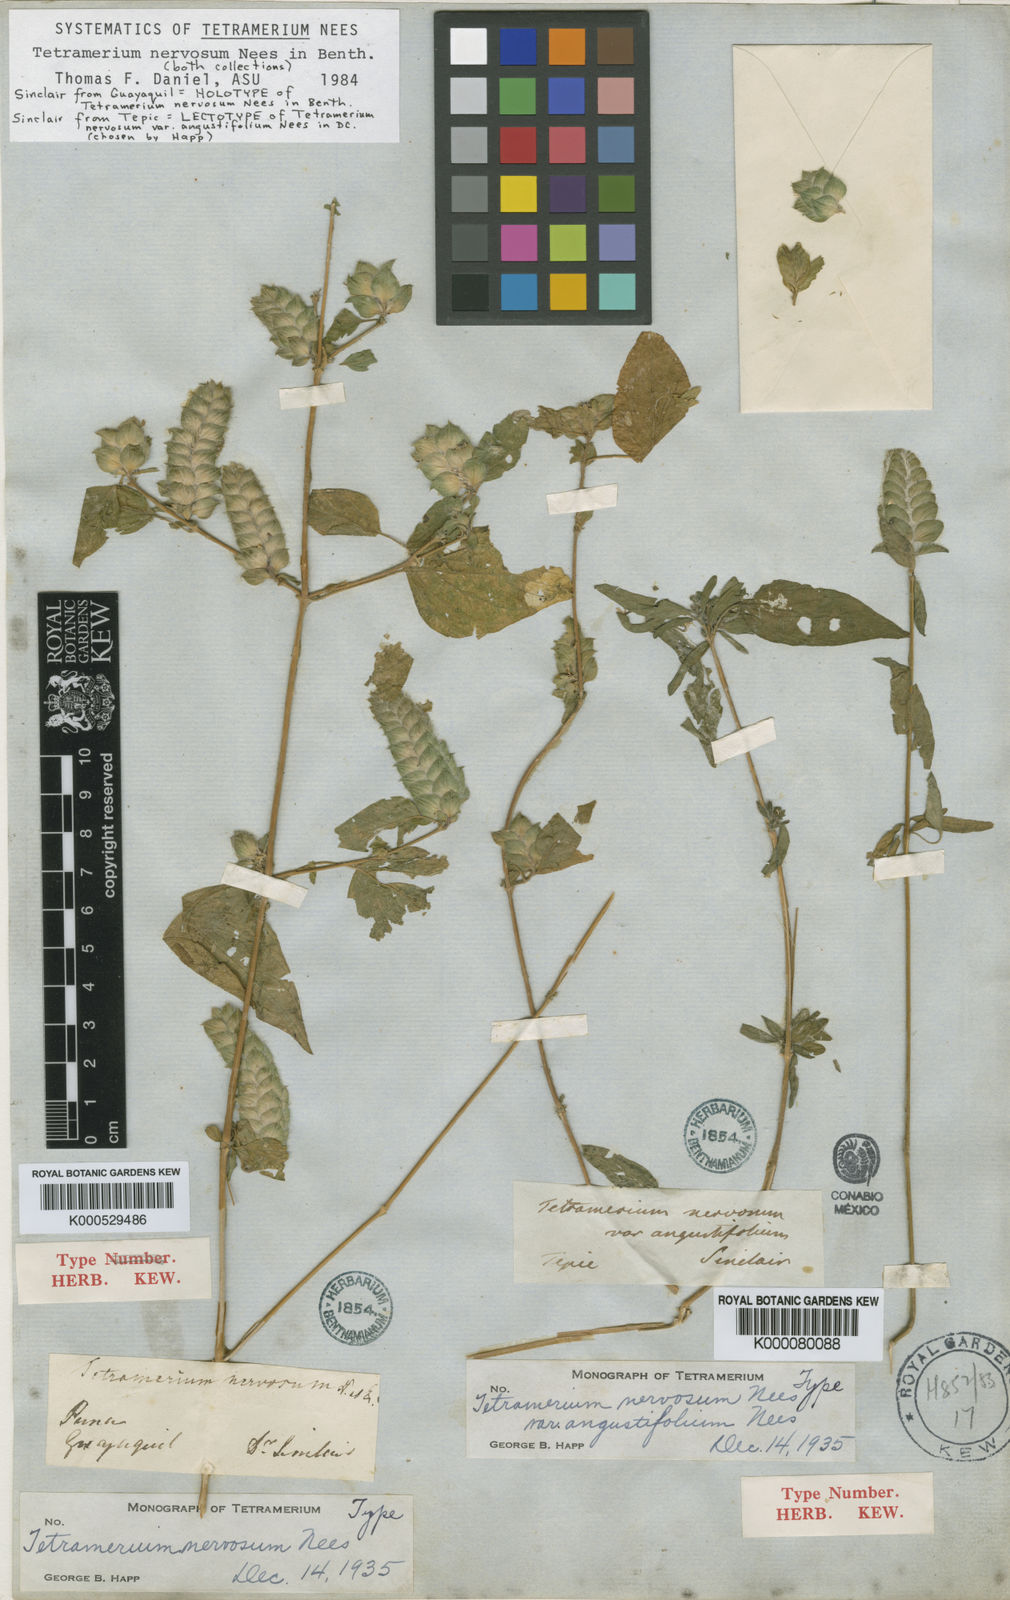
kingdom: Plantae
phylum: Tracheophyta
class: Magnoliopsida
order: Lamiales
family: Acanthaceae
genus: Tetramerium
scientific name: Tetramerium nervosum
